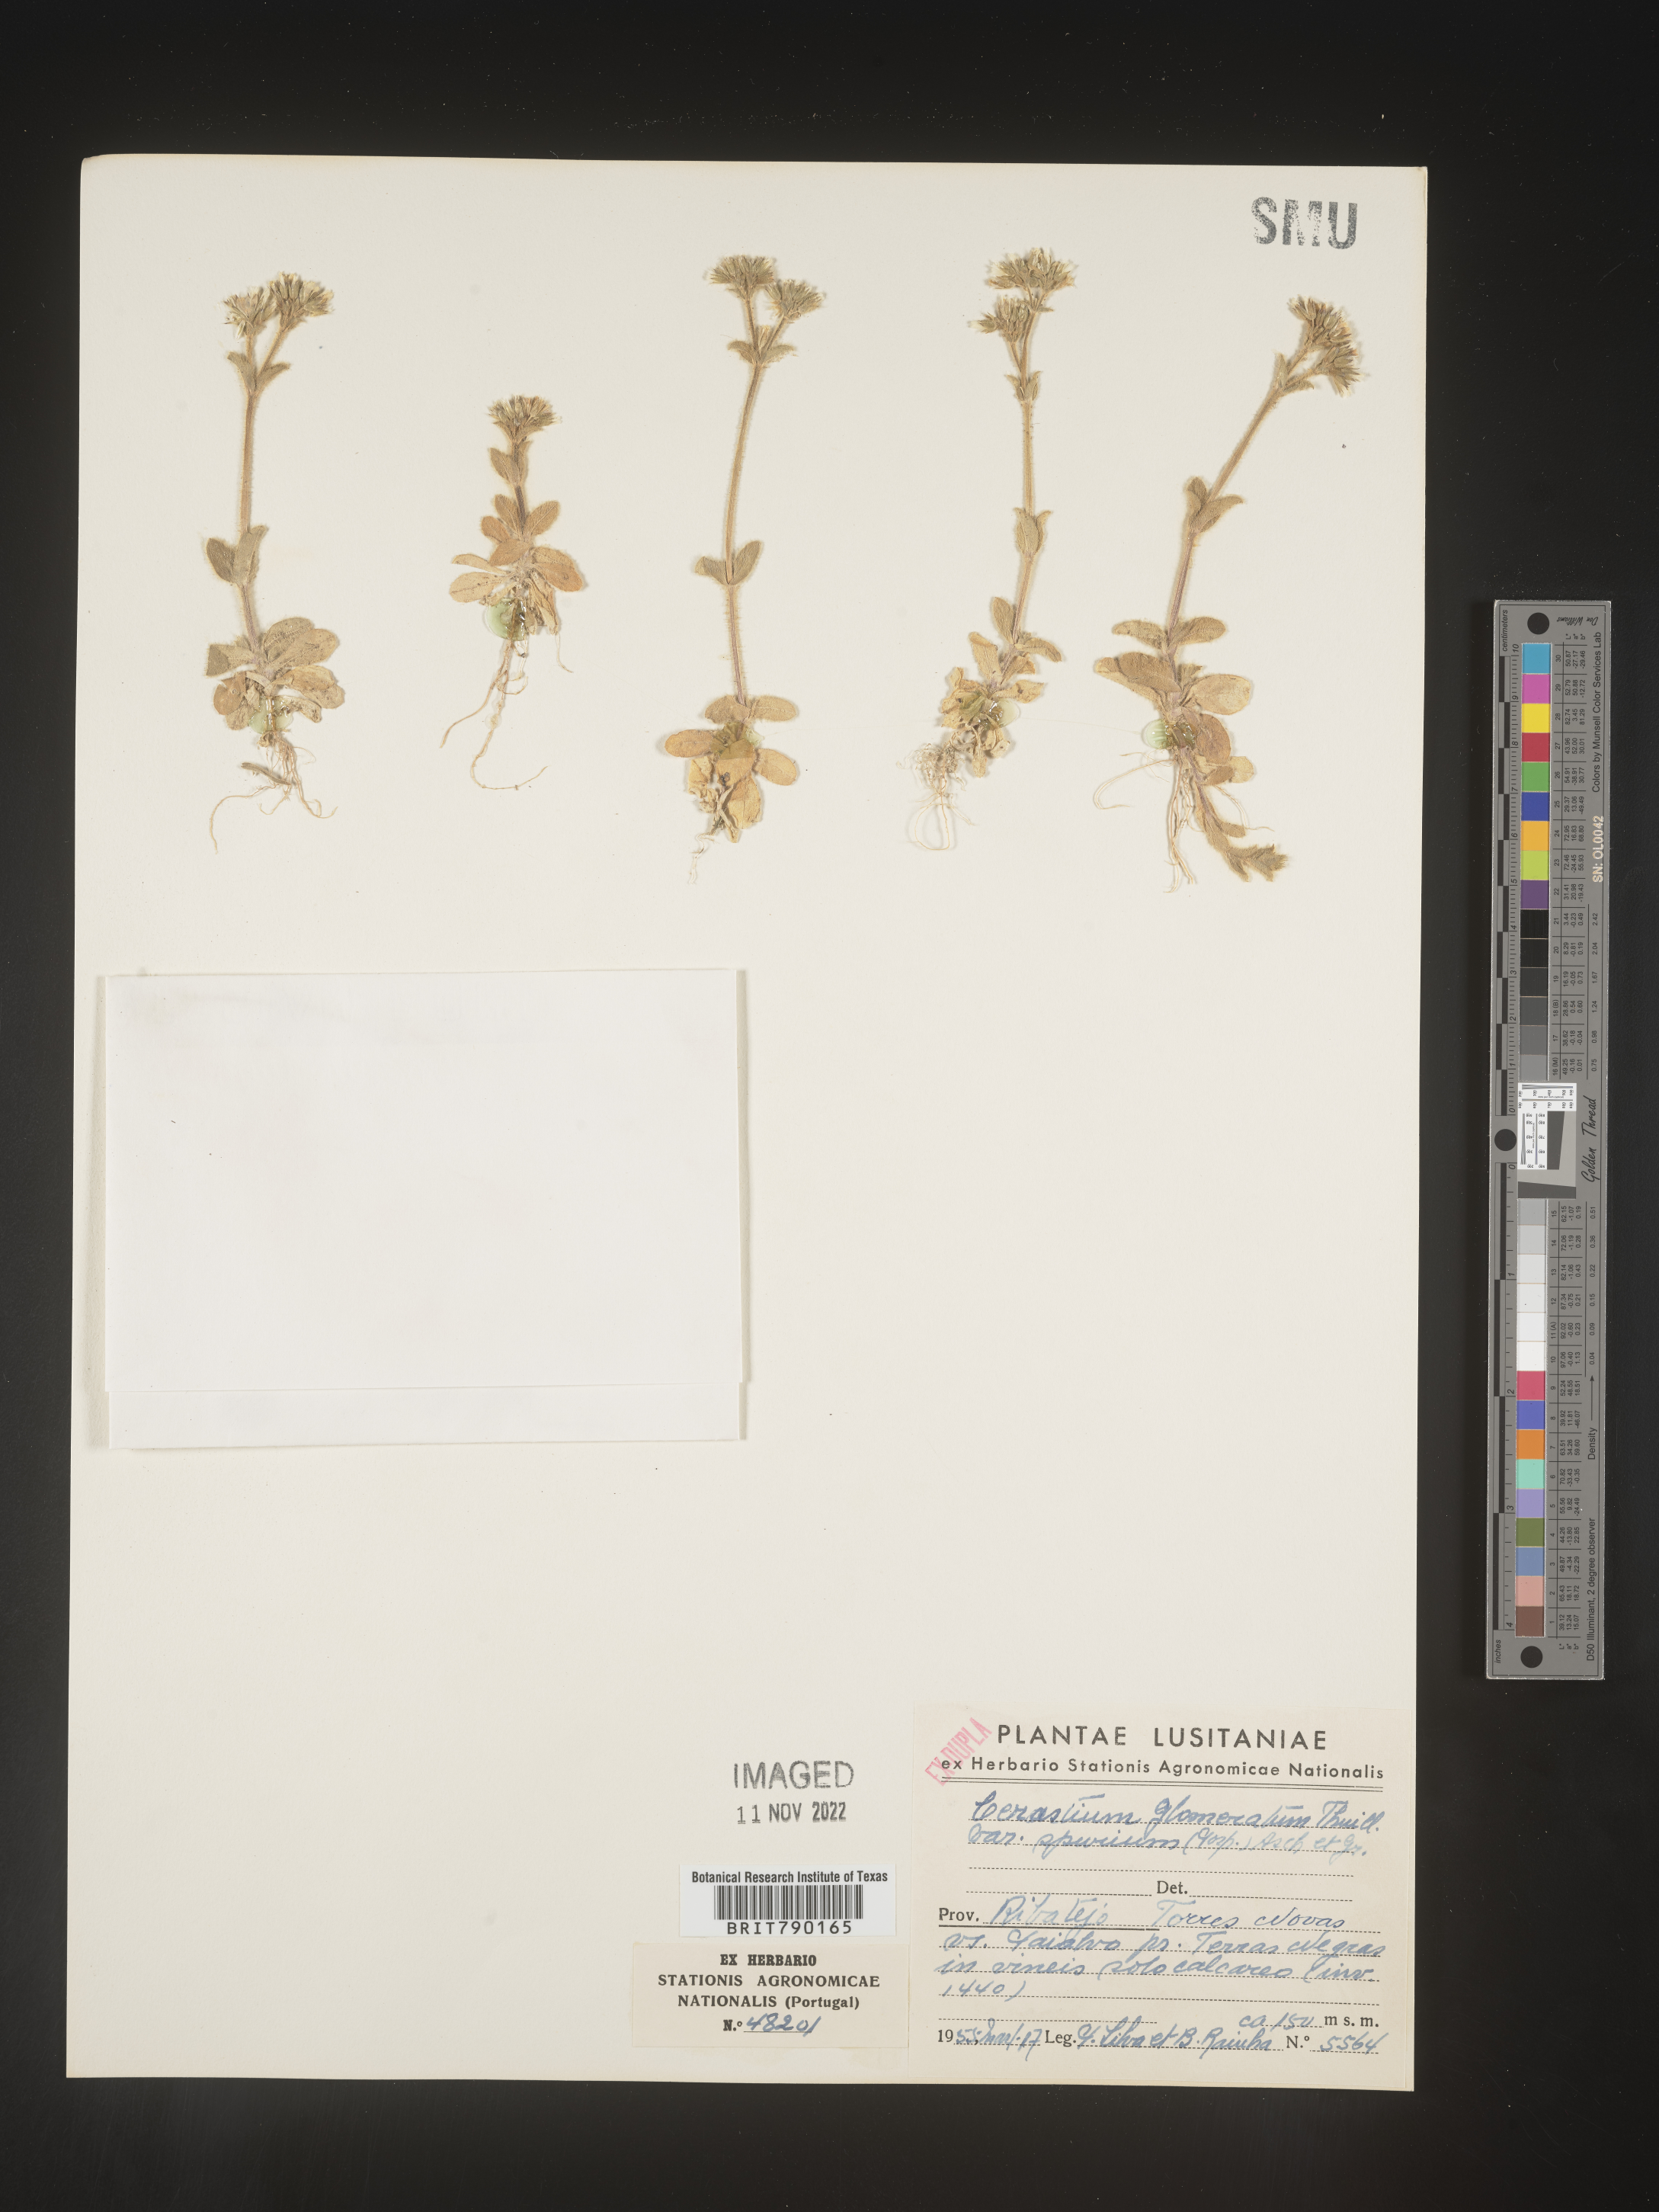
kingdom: Plantae
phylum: Tracheophyta
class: Magnoliopsida
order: Caryophyllales
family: Caryophyllaceae
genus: Cerastium
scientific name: Cerastium
